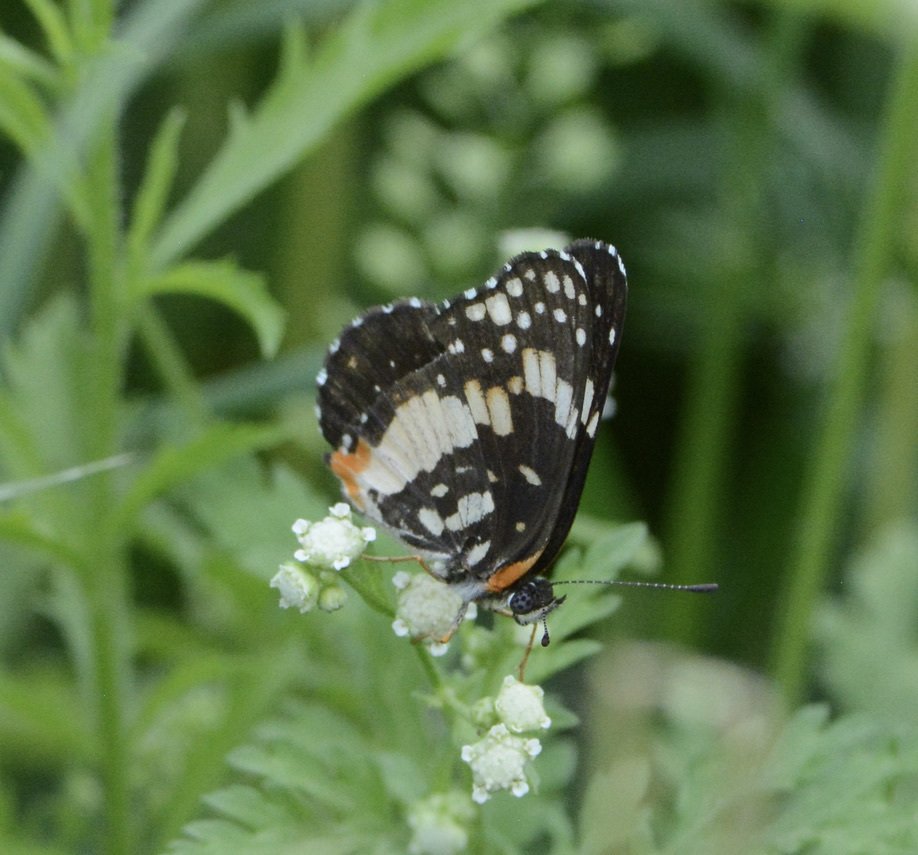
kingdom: Animalia
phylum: Arthropoda
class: Insecta
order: Lepidoptera
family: Nymphalidae
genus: Chlosyne
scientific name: Chlosyne lacinia
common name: Bordered Patch
